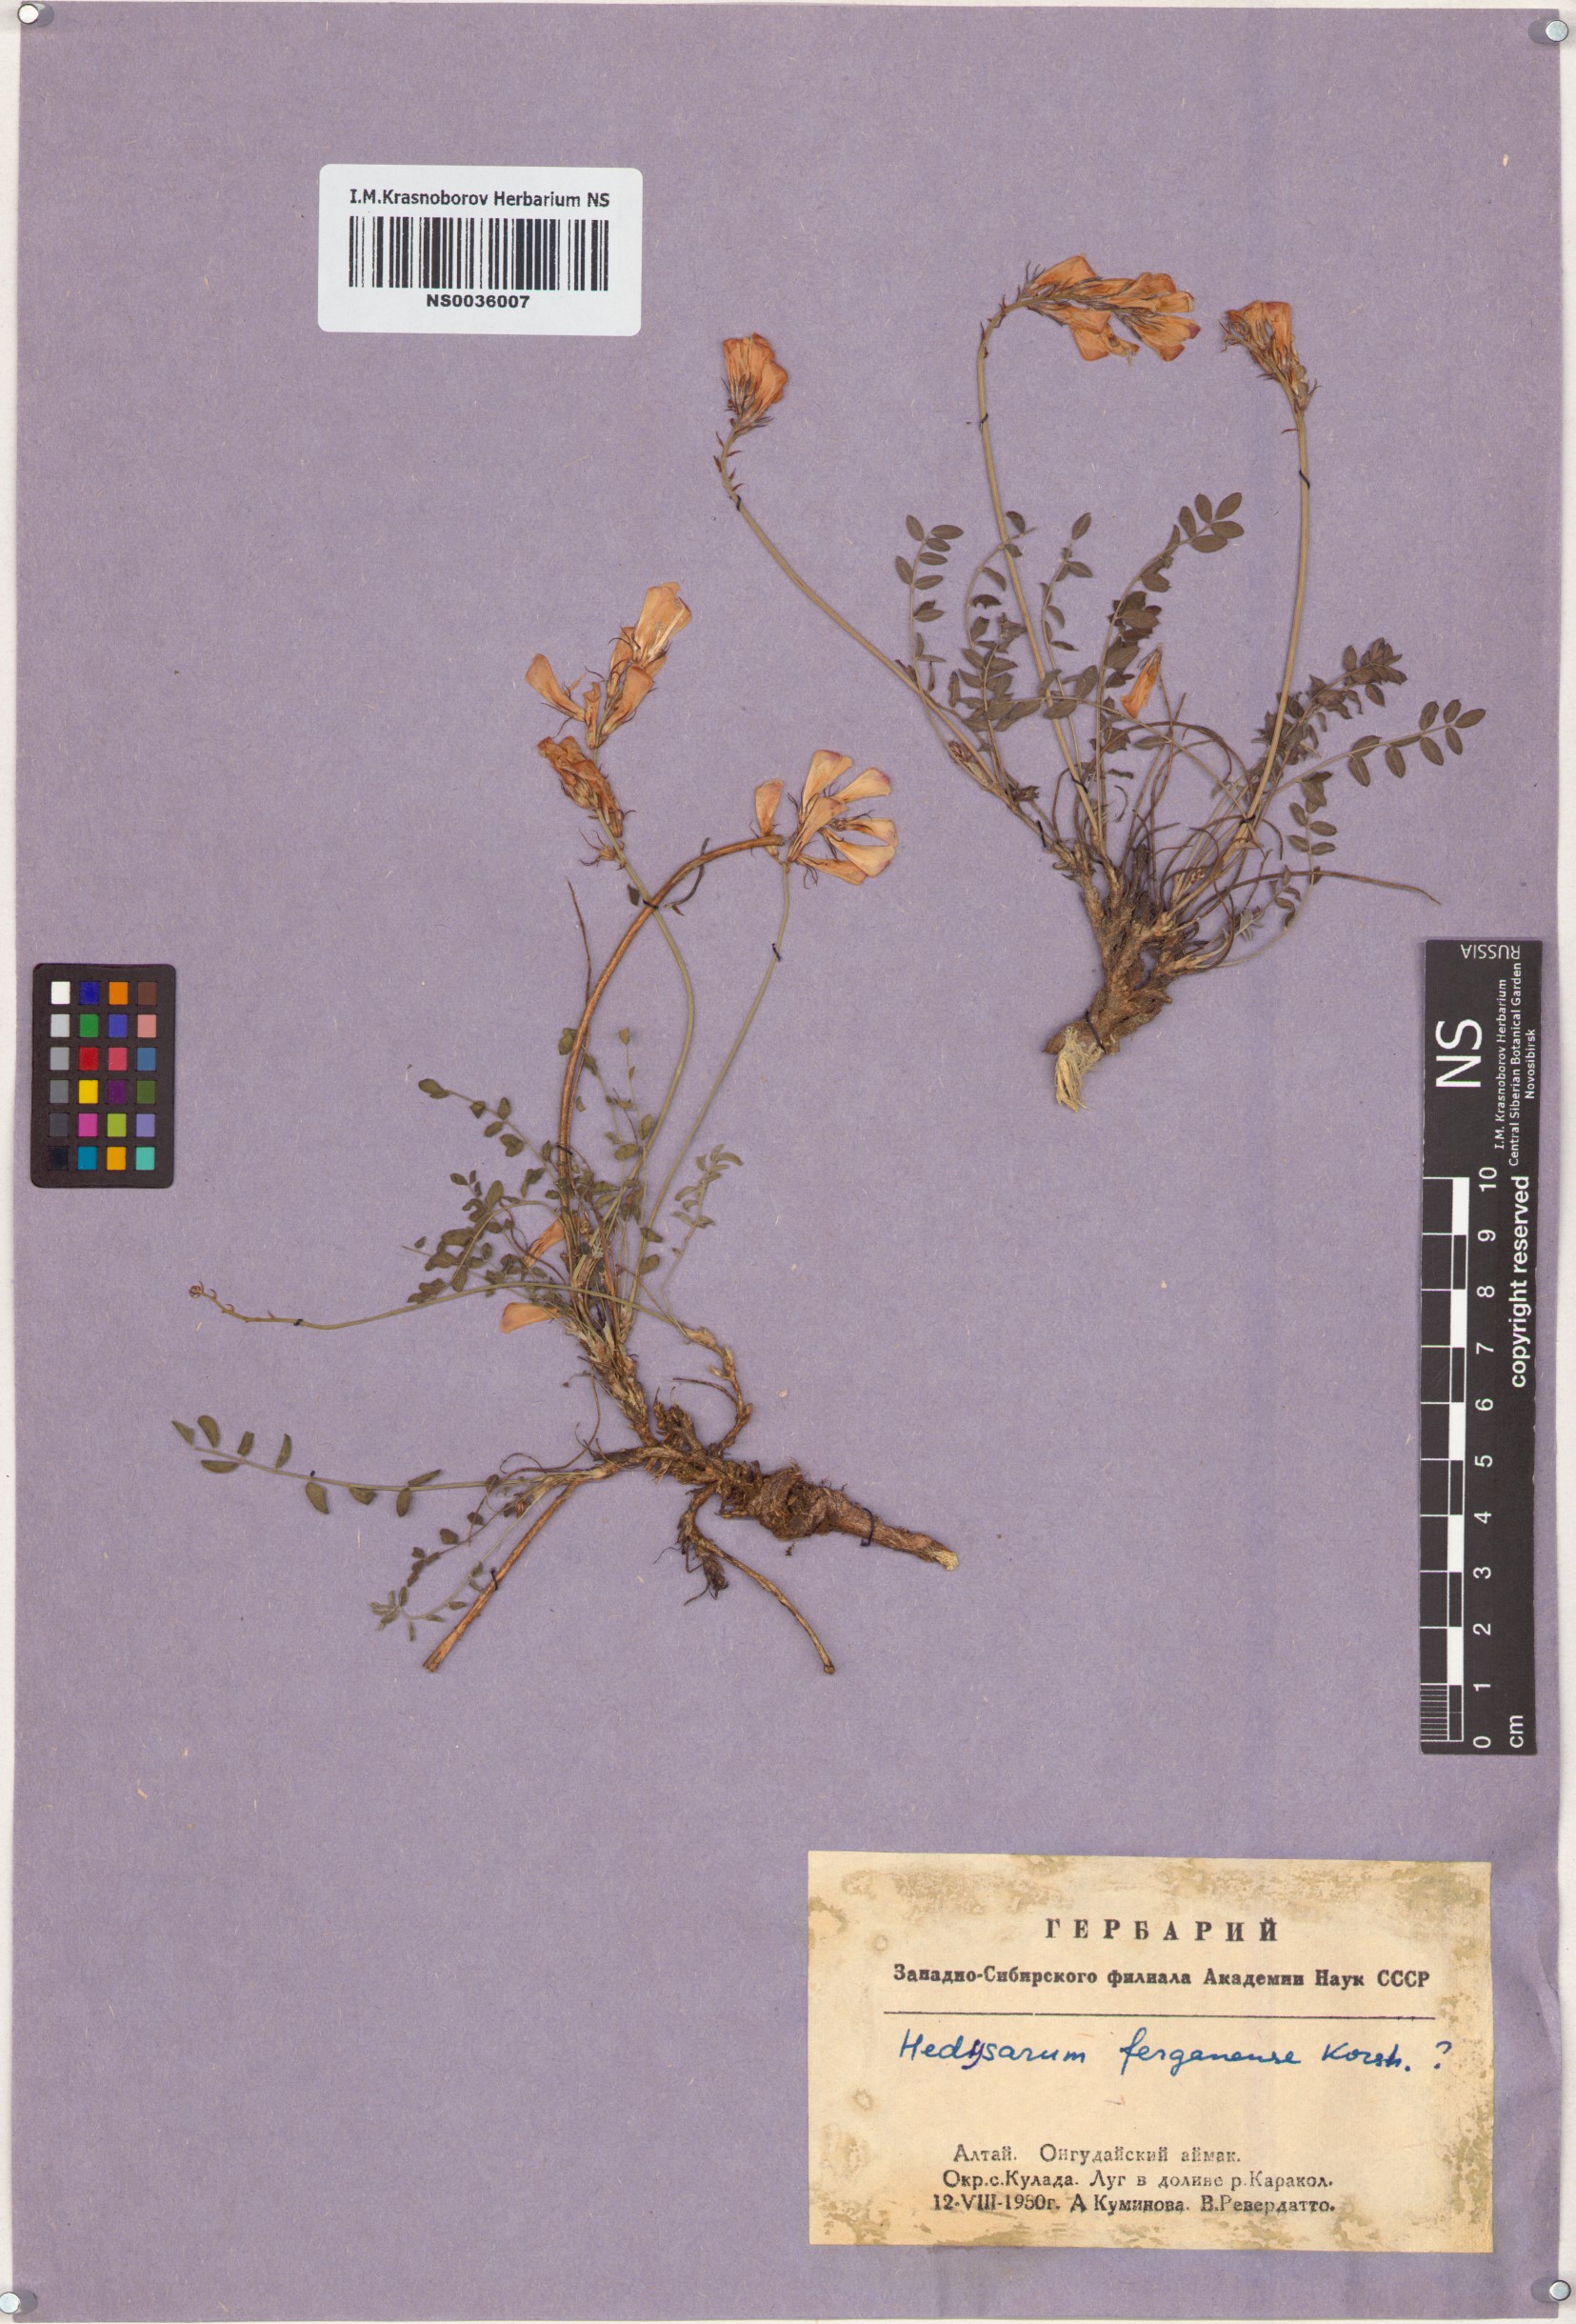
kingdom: Plantae
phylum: Tracheophyta
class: Magnoliopsida
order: Fabales
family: Fabaceae
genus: Hedysarum
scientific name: Hedysarum ferganense
